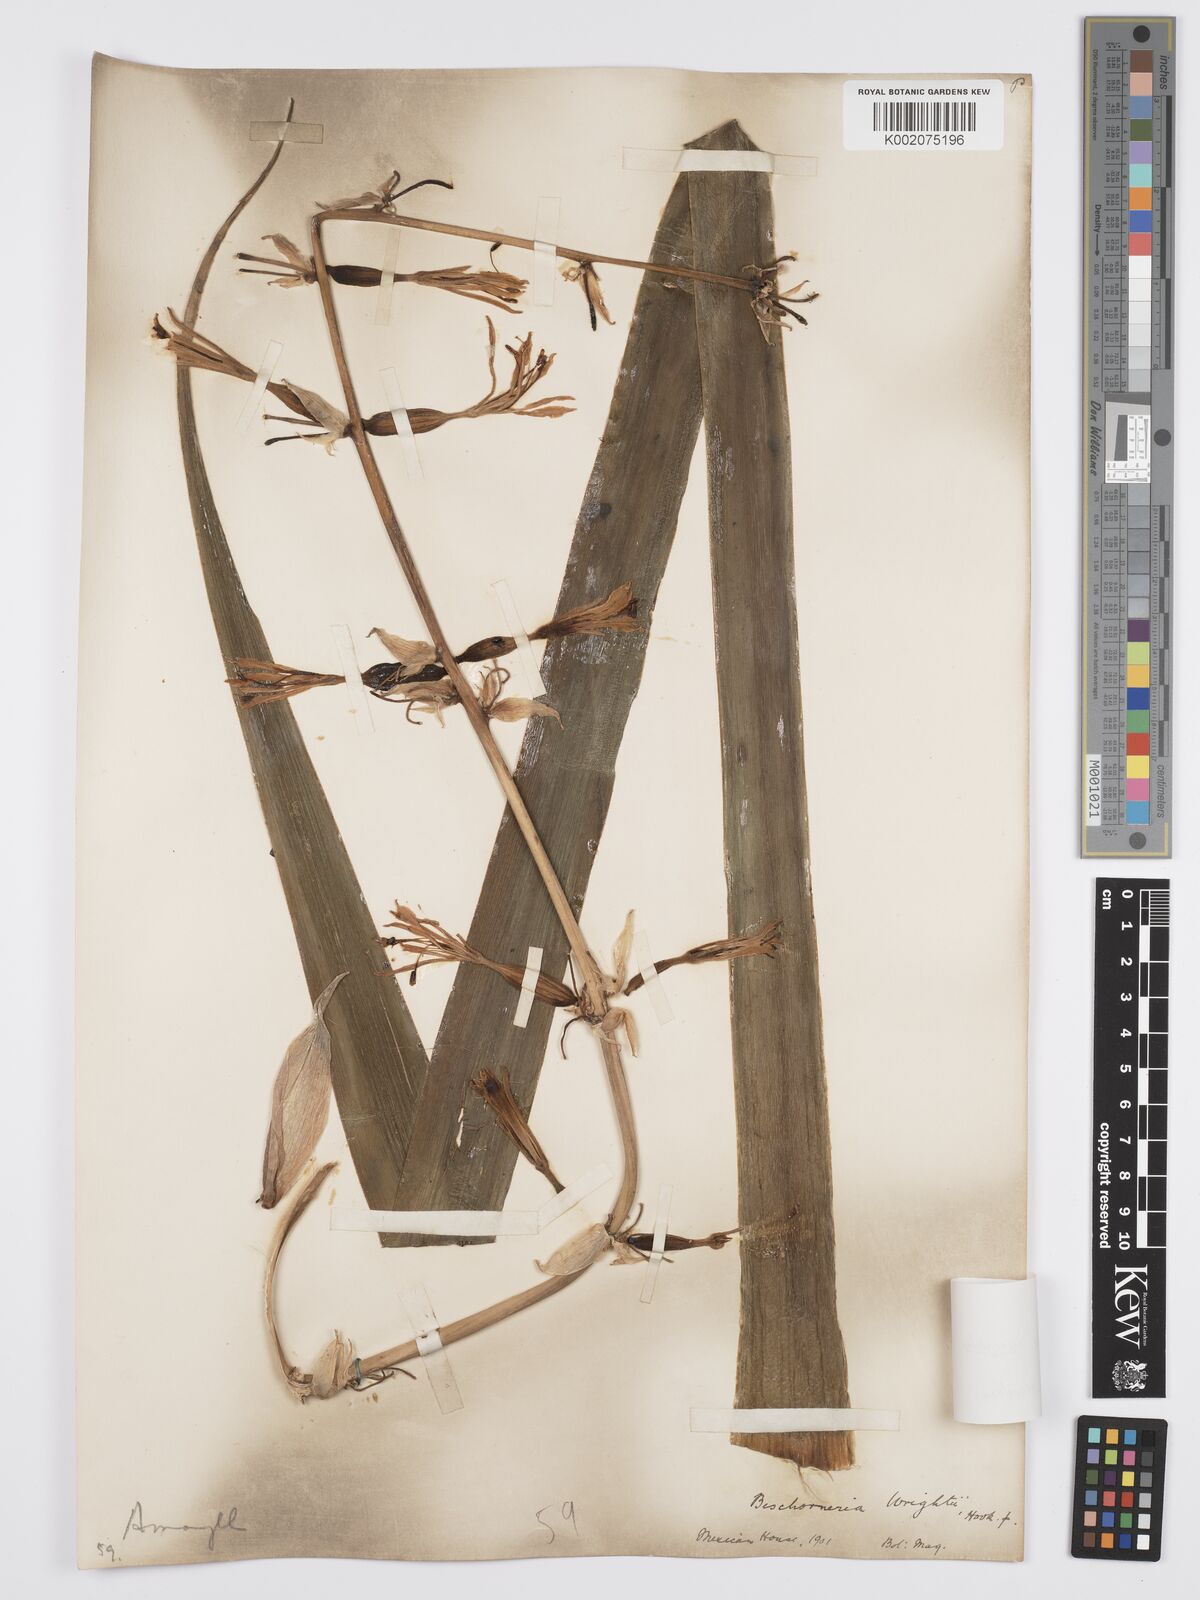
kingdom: Plantae
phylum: Tracheophyta
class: Liliopsida
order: Asparagales
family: Asparagaceae
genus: Beschorneria
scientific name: Beschorneria wrightii
